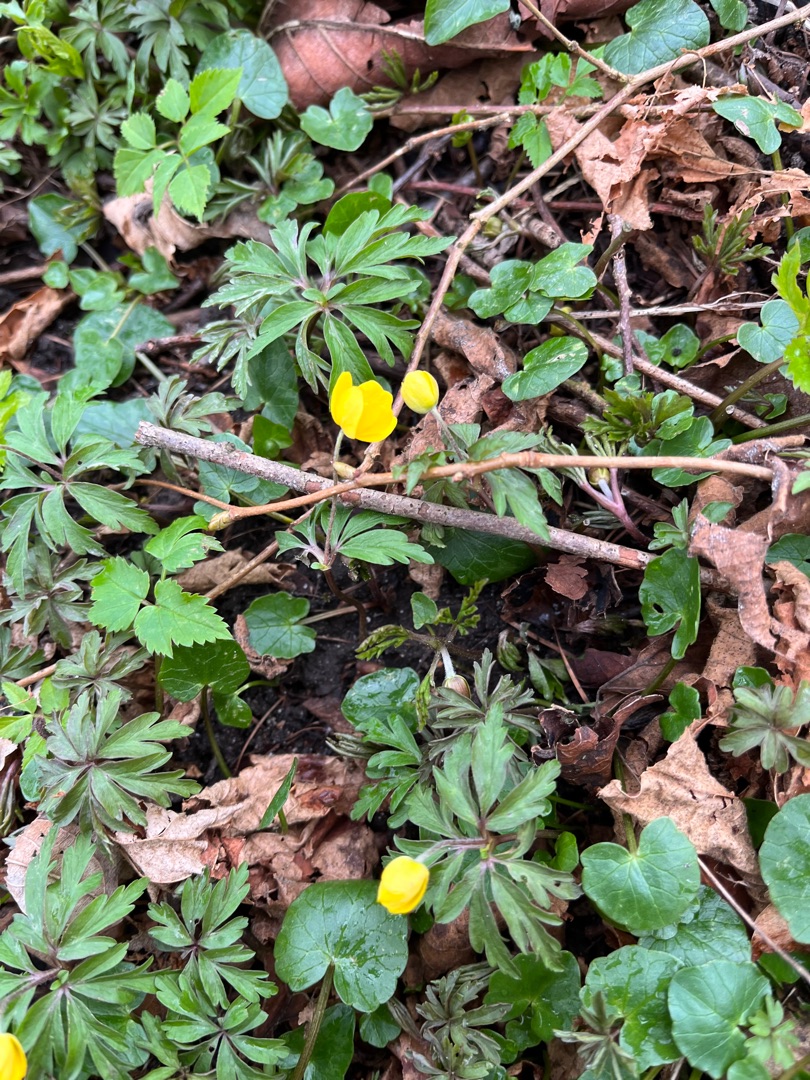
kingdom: Plantae
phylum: Tracheophyta
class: Magnoliopsida
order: Ranunculales
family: Ranunculaceae
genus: Anemone
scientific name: Anemone ranunculoides
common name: Gul anemone
